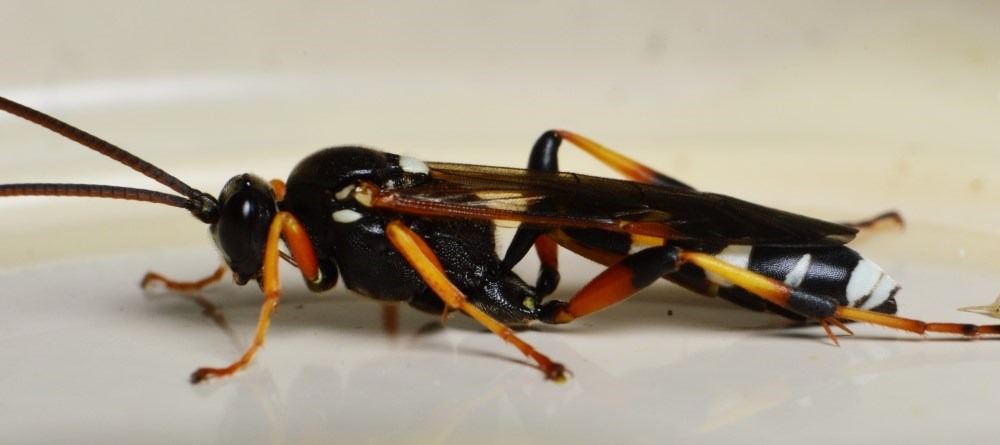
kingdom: Animalia
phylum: Arthropoda
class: Insecta
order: Hymenoptera
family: Ichneumonidae
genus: Ichneumon
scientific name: Ichneumon sarcitorius
